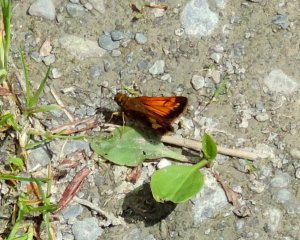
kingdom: Animalia
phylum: Arthropoda
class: Insecta
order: Lepidoptera
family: Hesperiidae
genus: Lon
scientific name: Lon hobomok
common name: Hobomok Skipper
